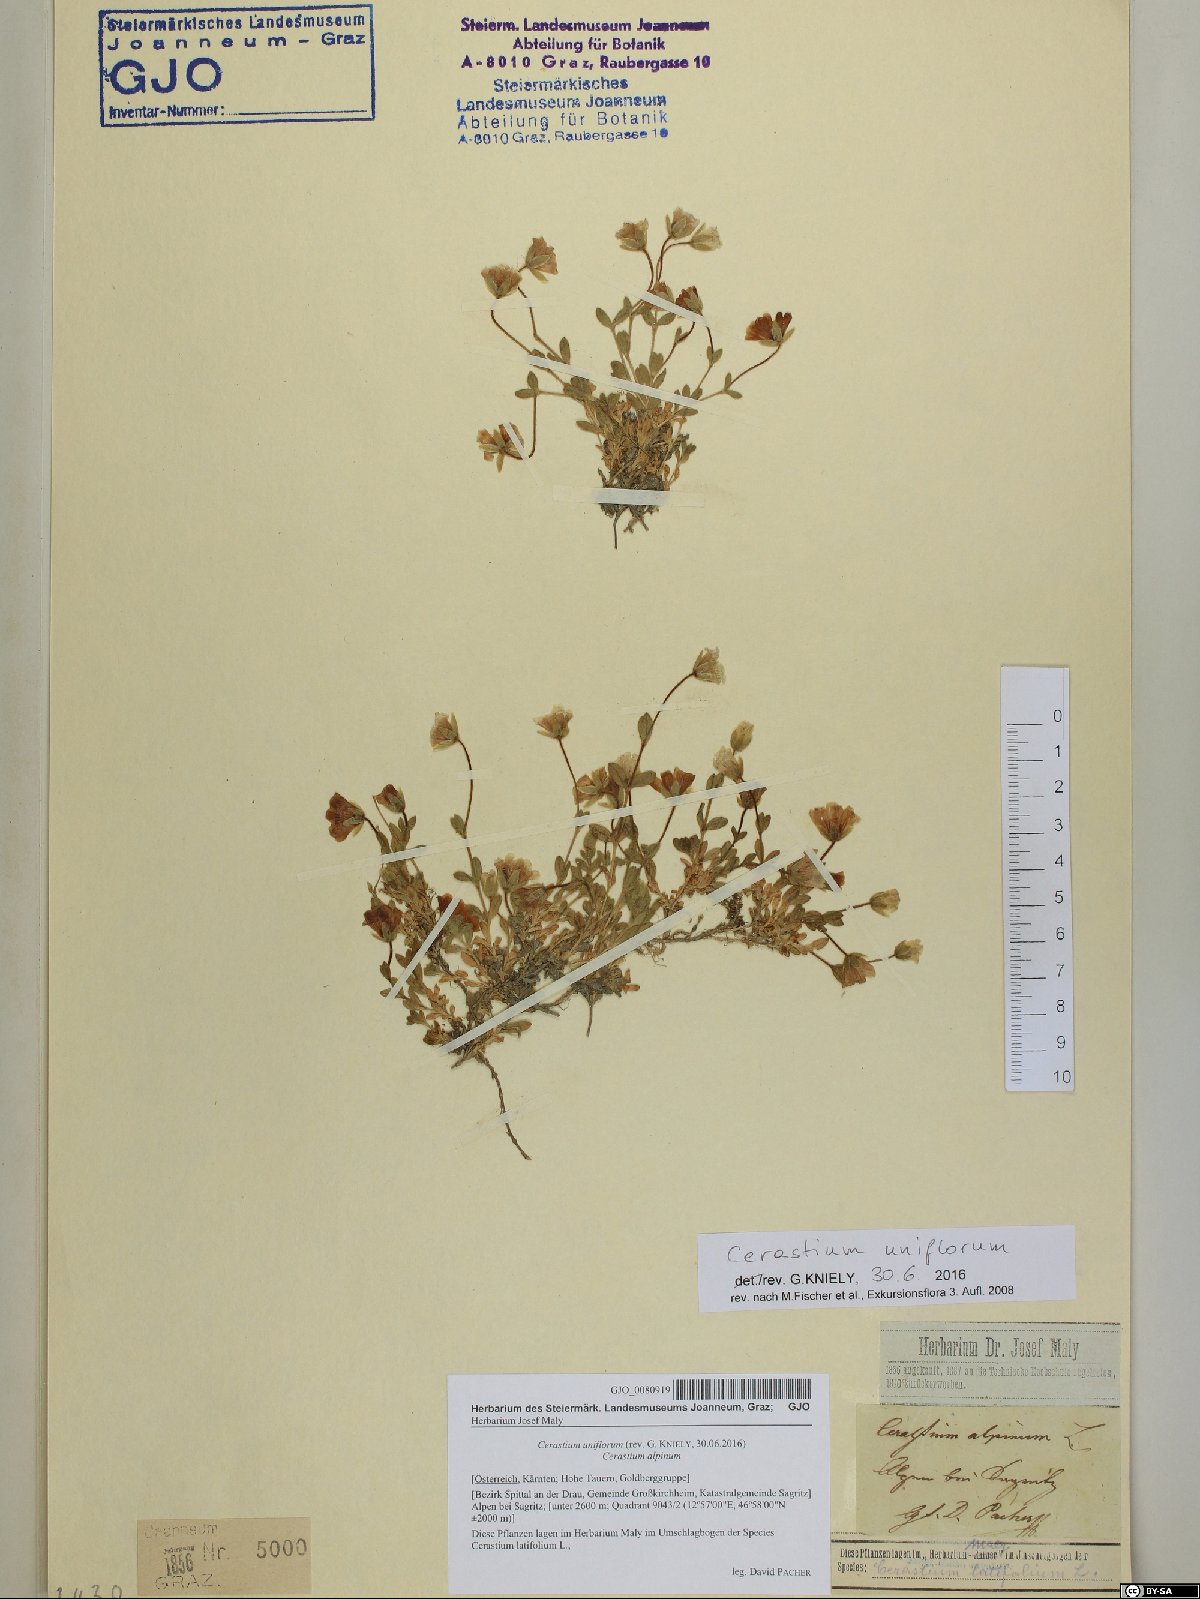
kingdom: Plantae
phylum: Tracheophyta
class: Magnoliopsida
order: Caryophyllales
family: Caryophyllaceae
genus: Cerastium
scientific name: Cerastium uniflorum
